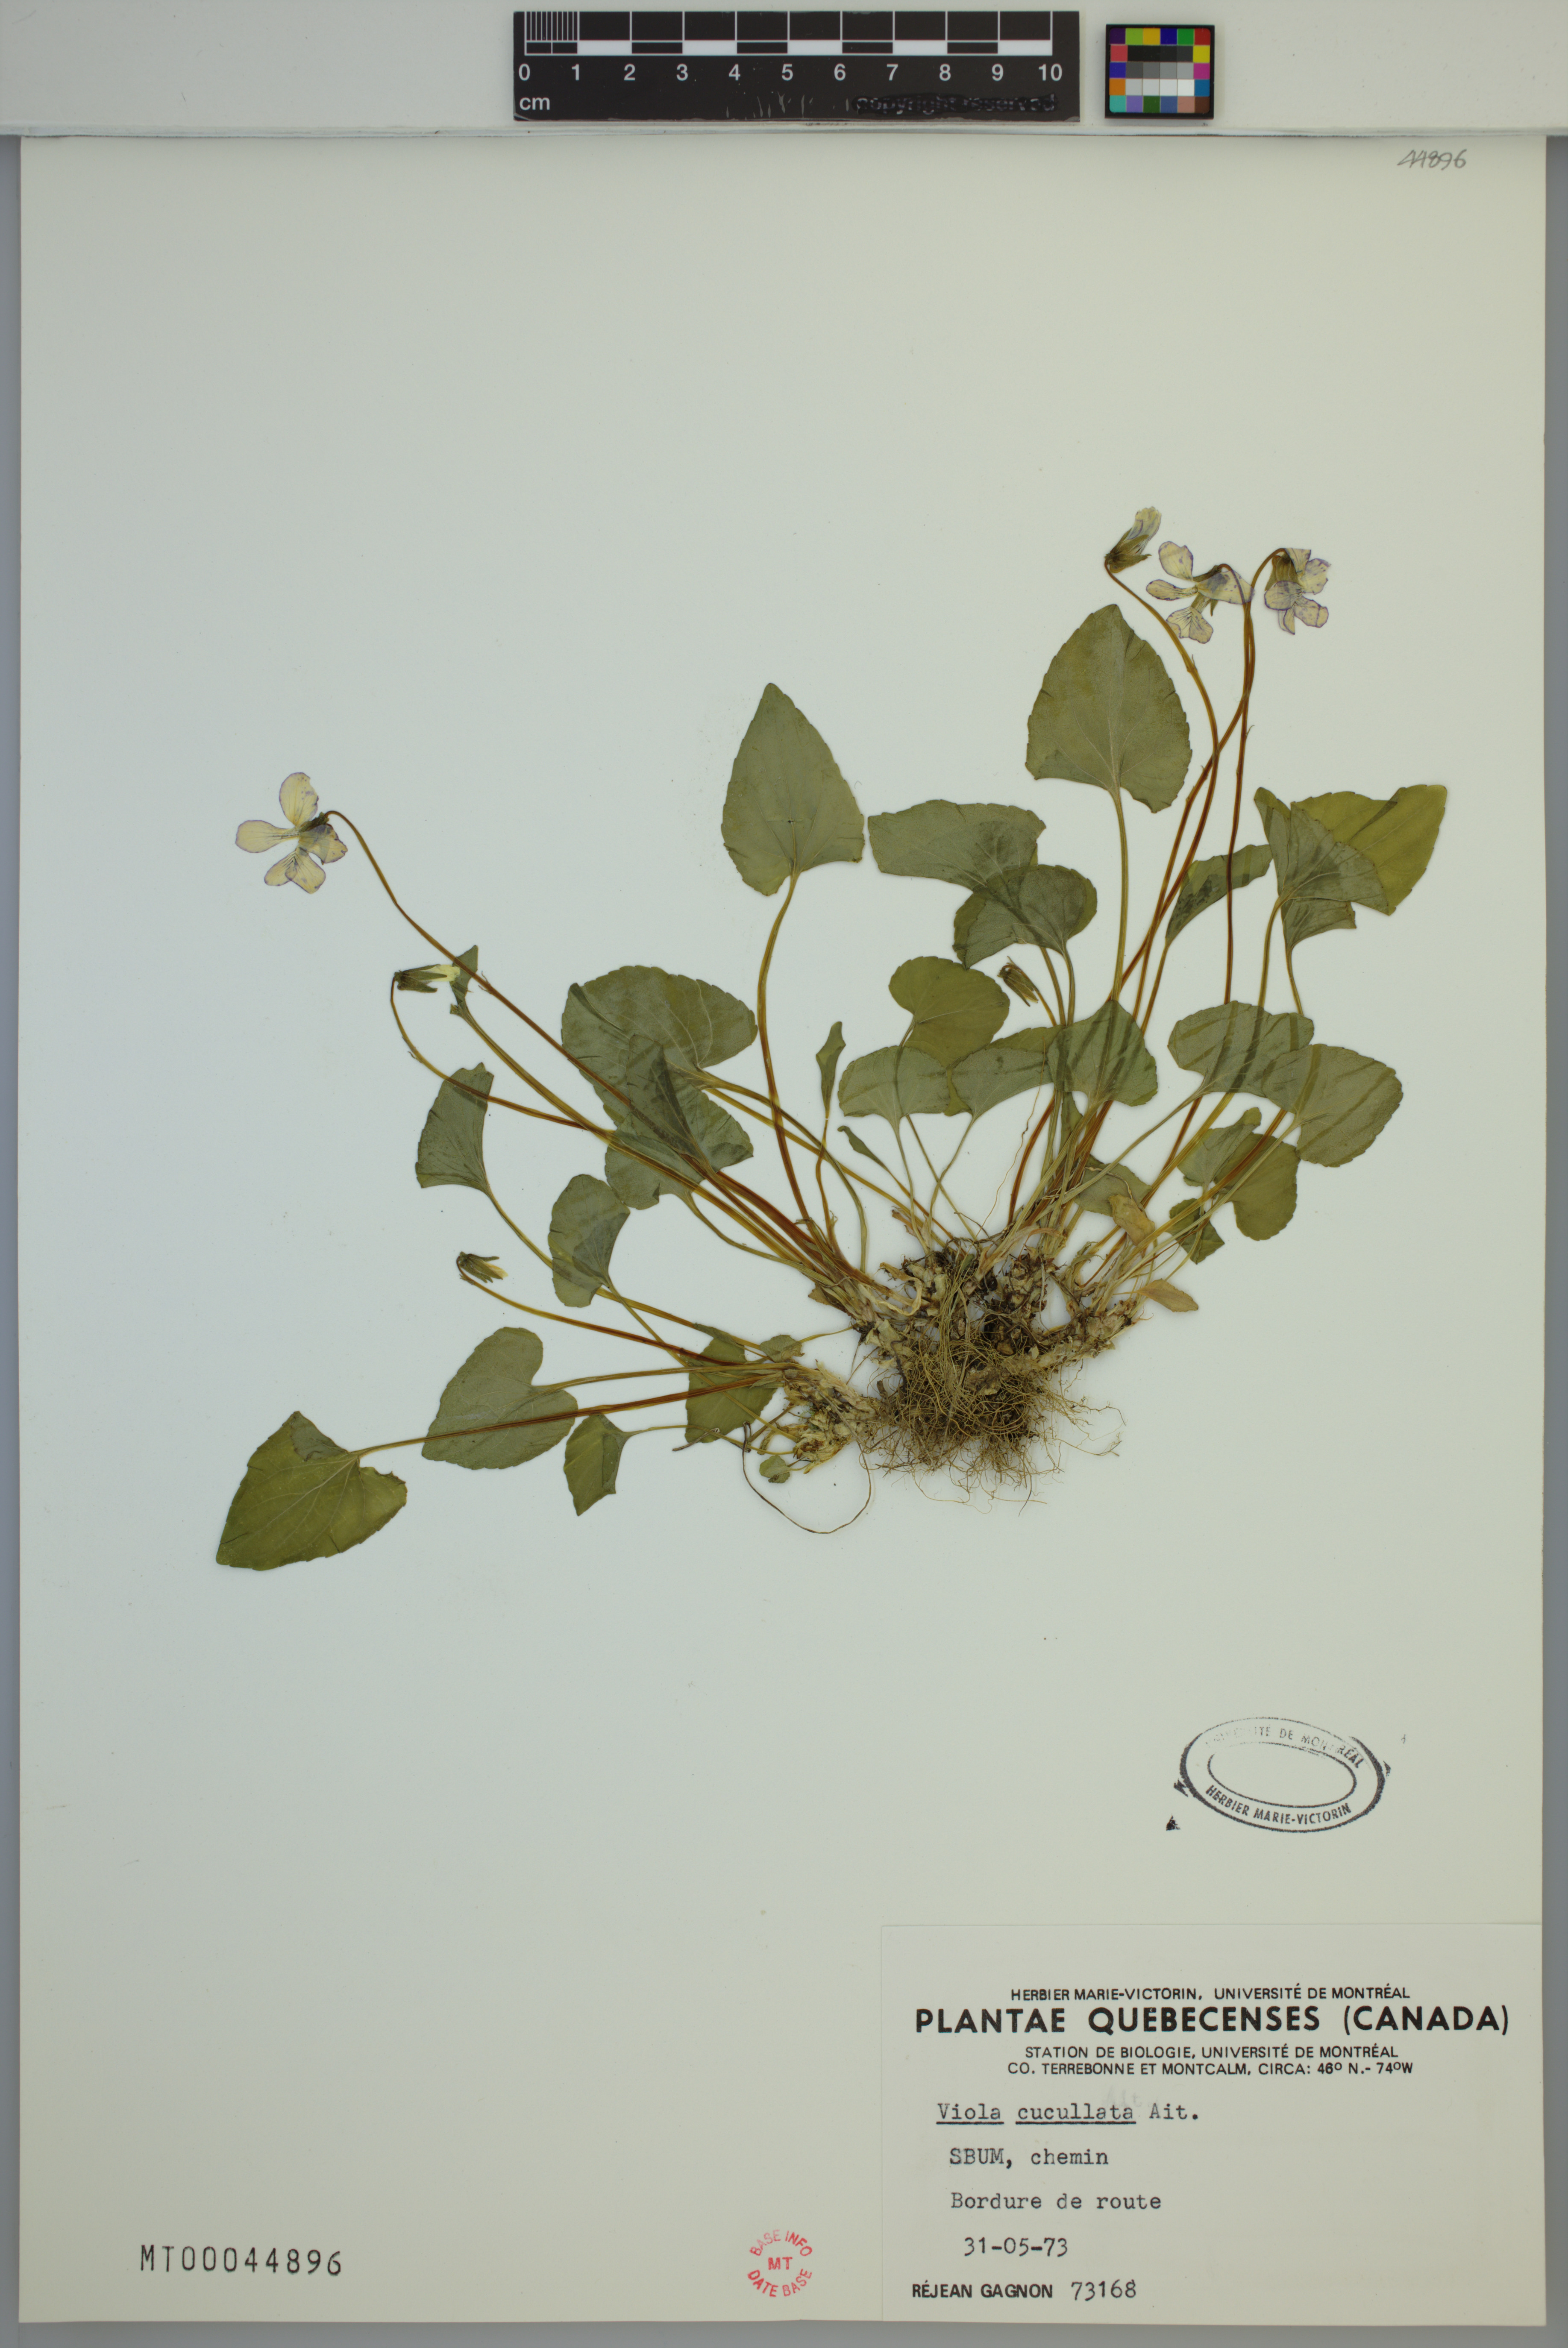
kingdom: Plantae
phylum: Tracheophyta
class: Magnoliopsida
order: Malpighiales
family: Violaceae
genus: Viola
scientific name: Viola cucullata
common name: Marsh blue violet
